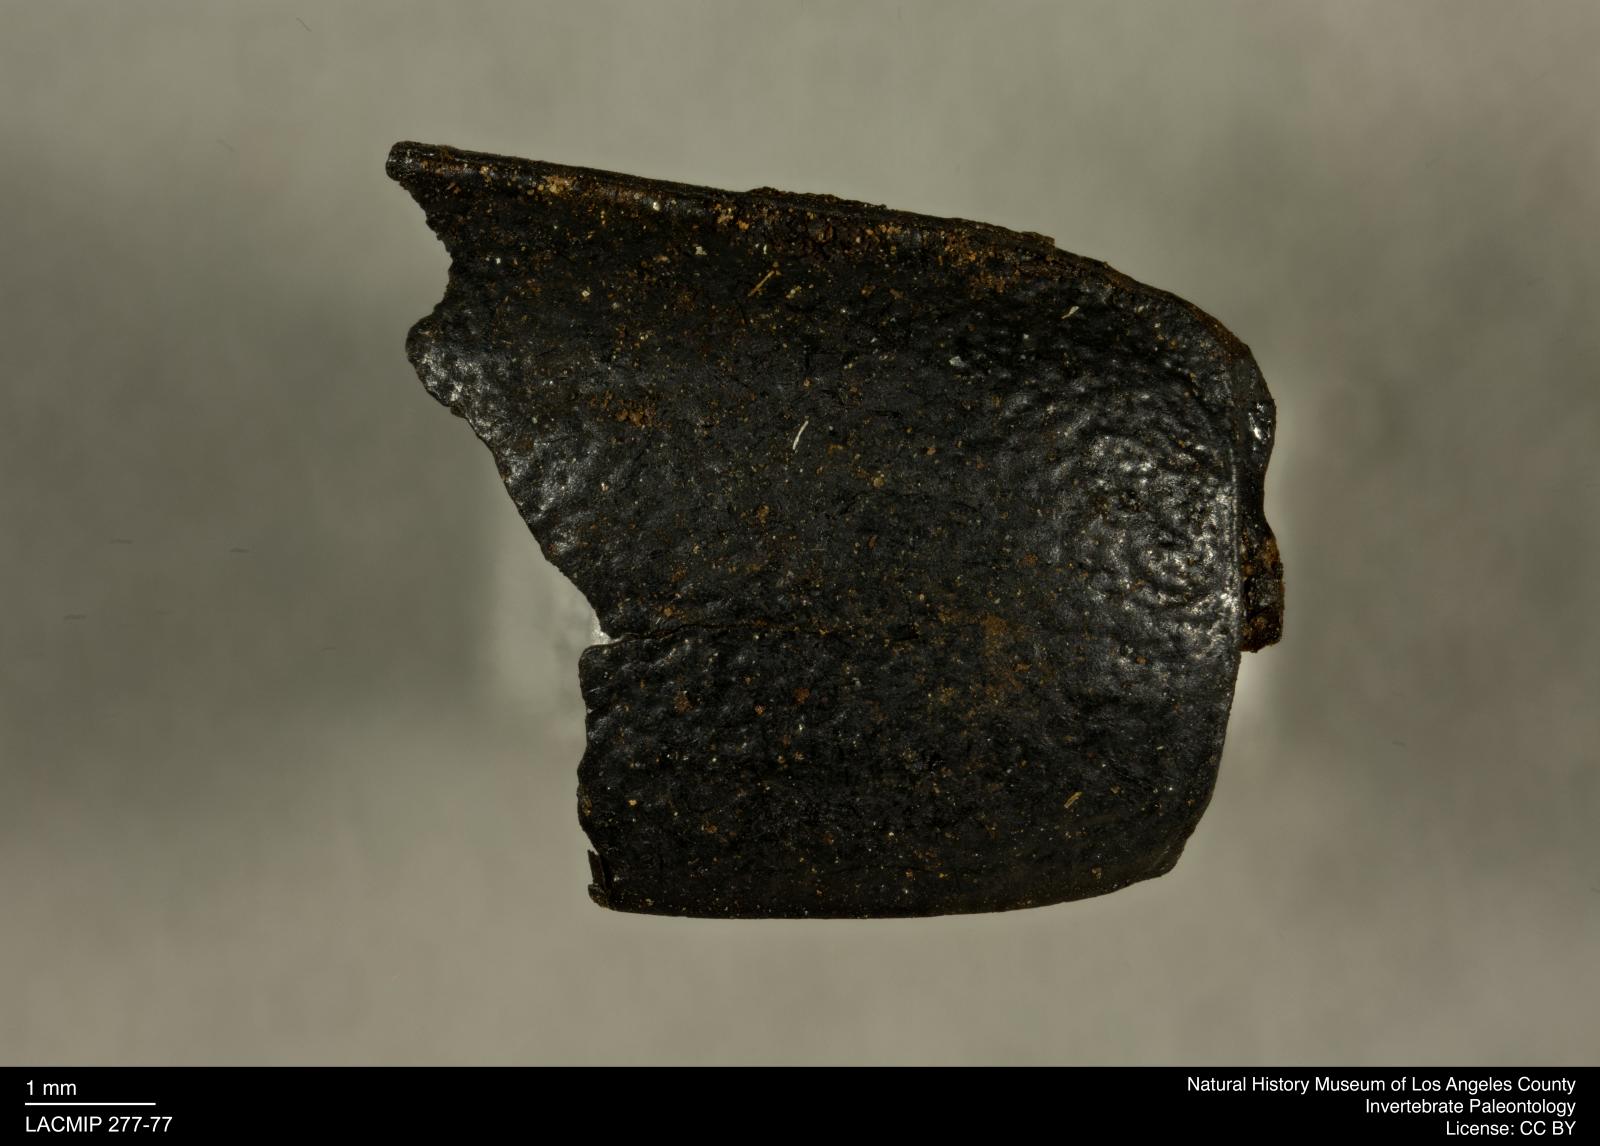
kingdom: Animalia
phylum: Arthropoda
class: Insecta
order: Coleoptera
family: Tenebrionidae
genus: Coniontis
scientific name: Coniontis abdominalis
